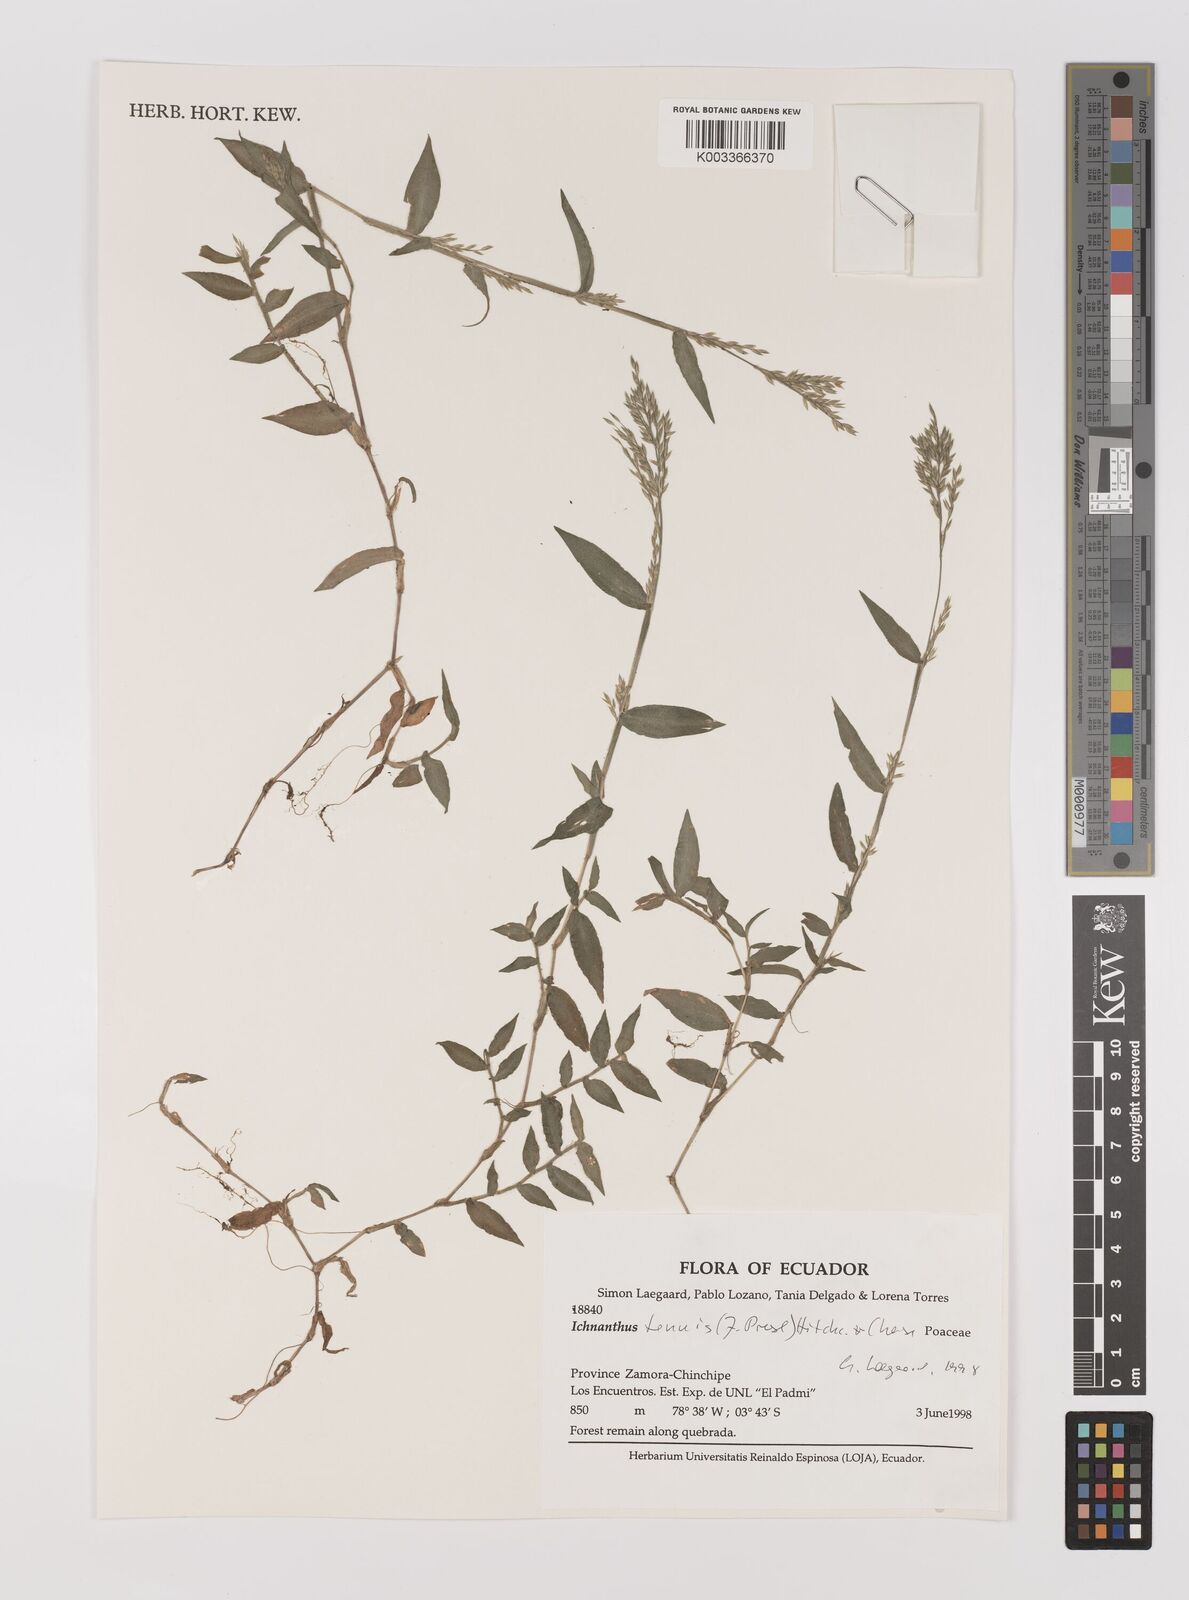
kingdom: Plantae
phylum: Tracheophyta
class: Liliopsida
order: Poales
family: Poaceae
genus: Ichnanthus
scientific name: Ichnanthus tenuis
